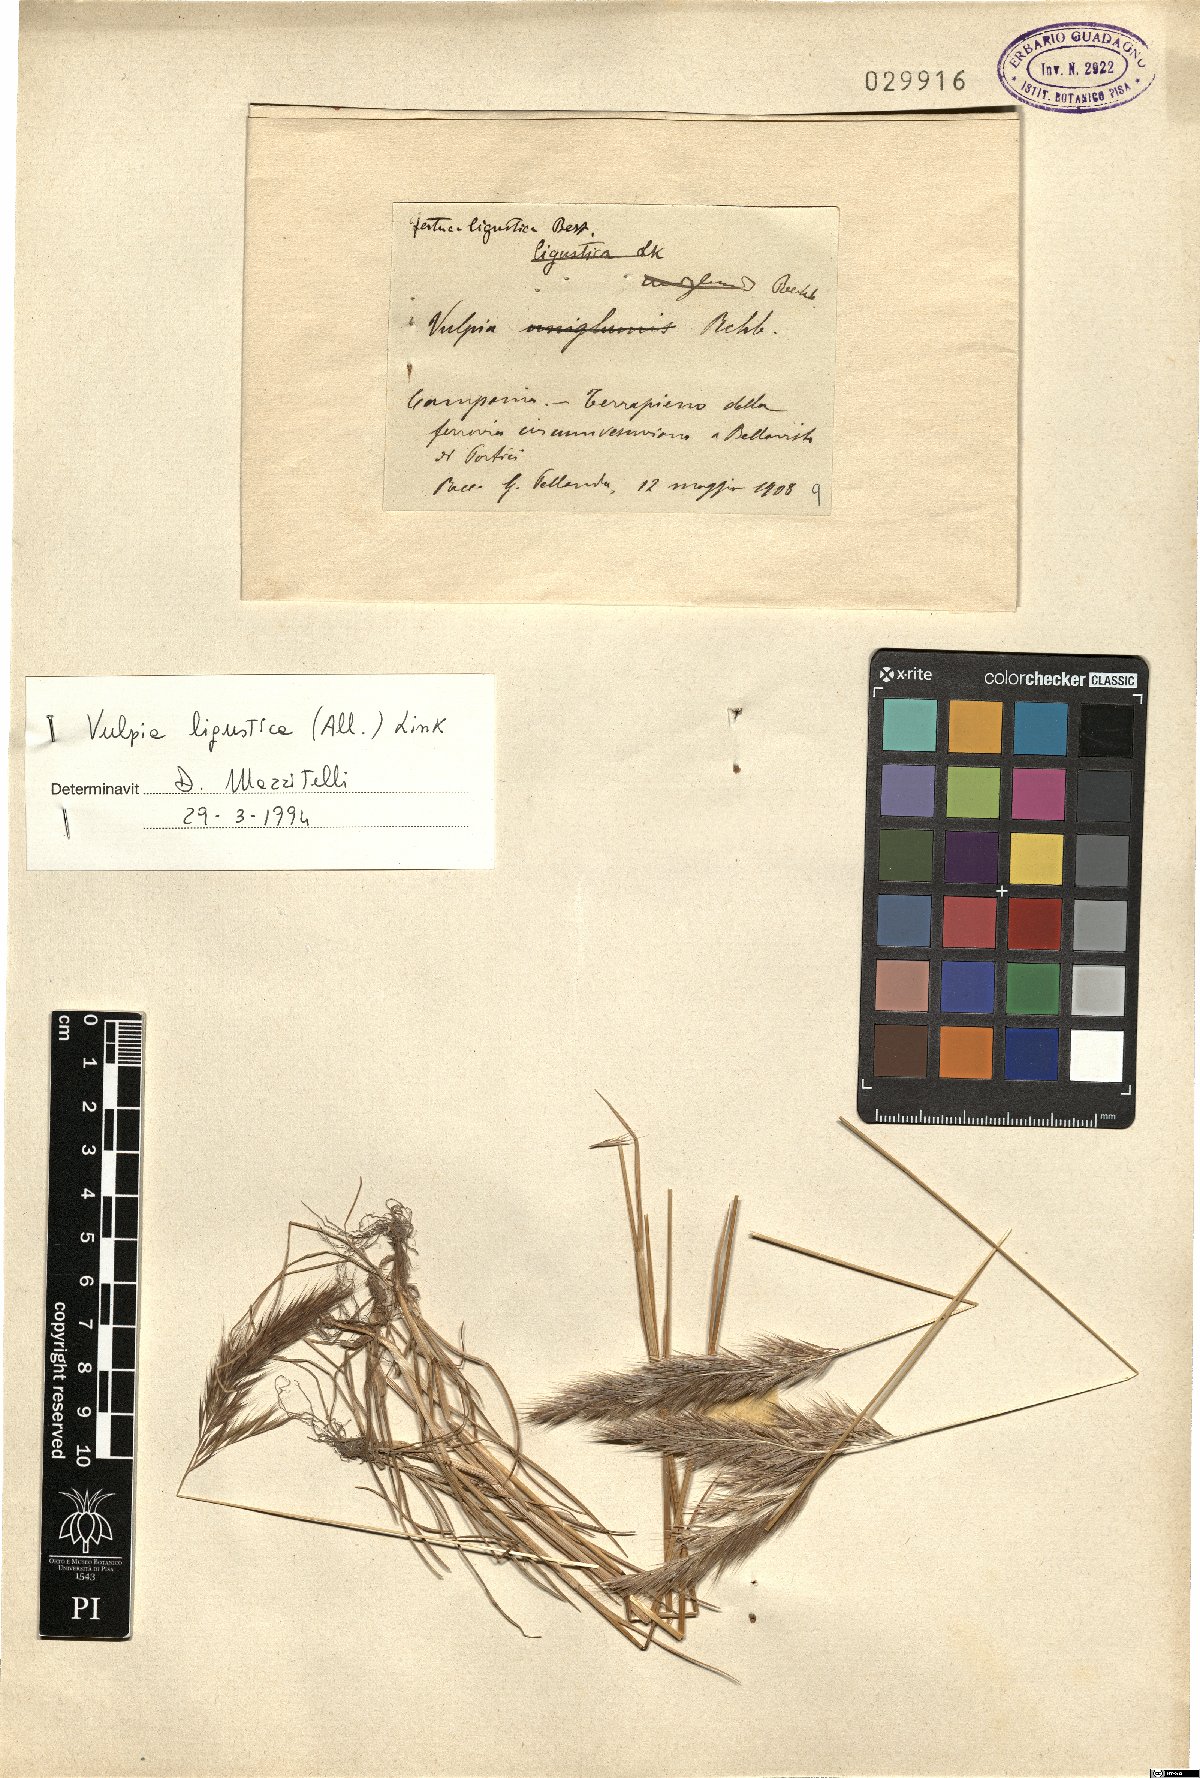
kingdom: Plantae
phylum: Tracheophyta
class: Liliopsida
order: Poales
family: Poaceae
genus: Festuca
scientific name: Festuca ligustica
